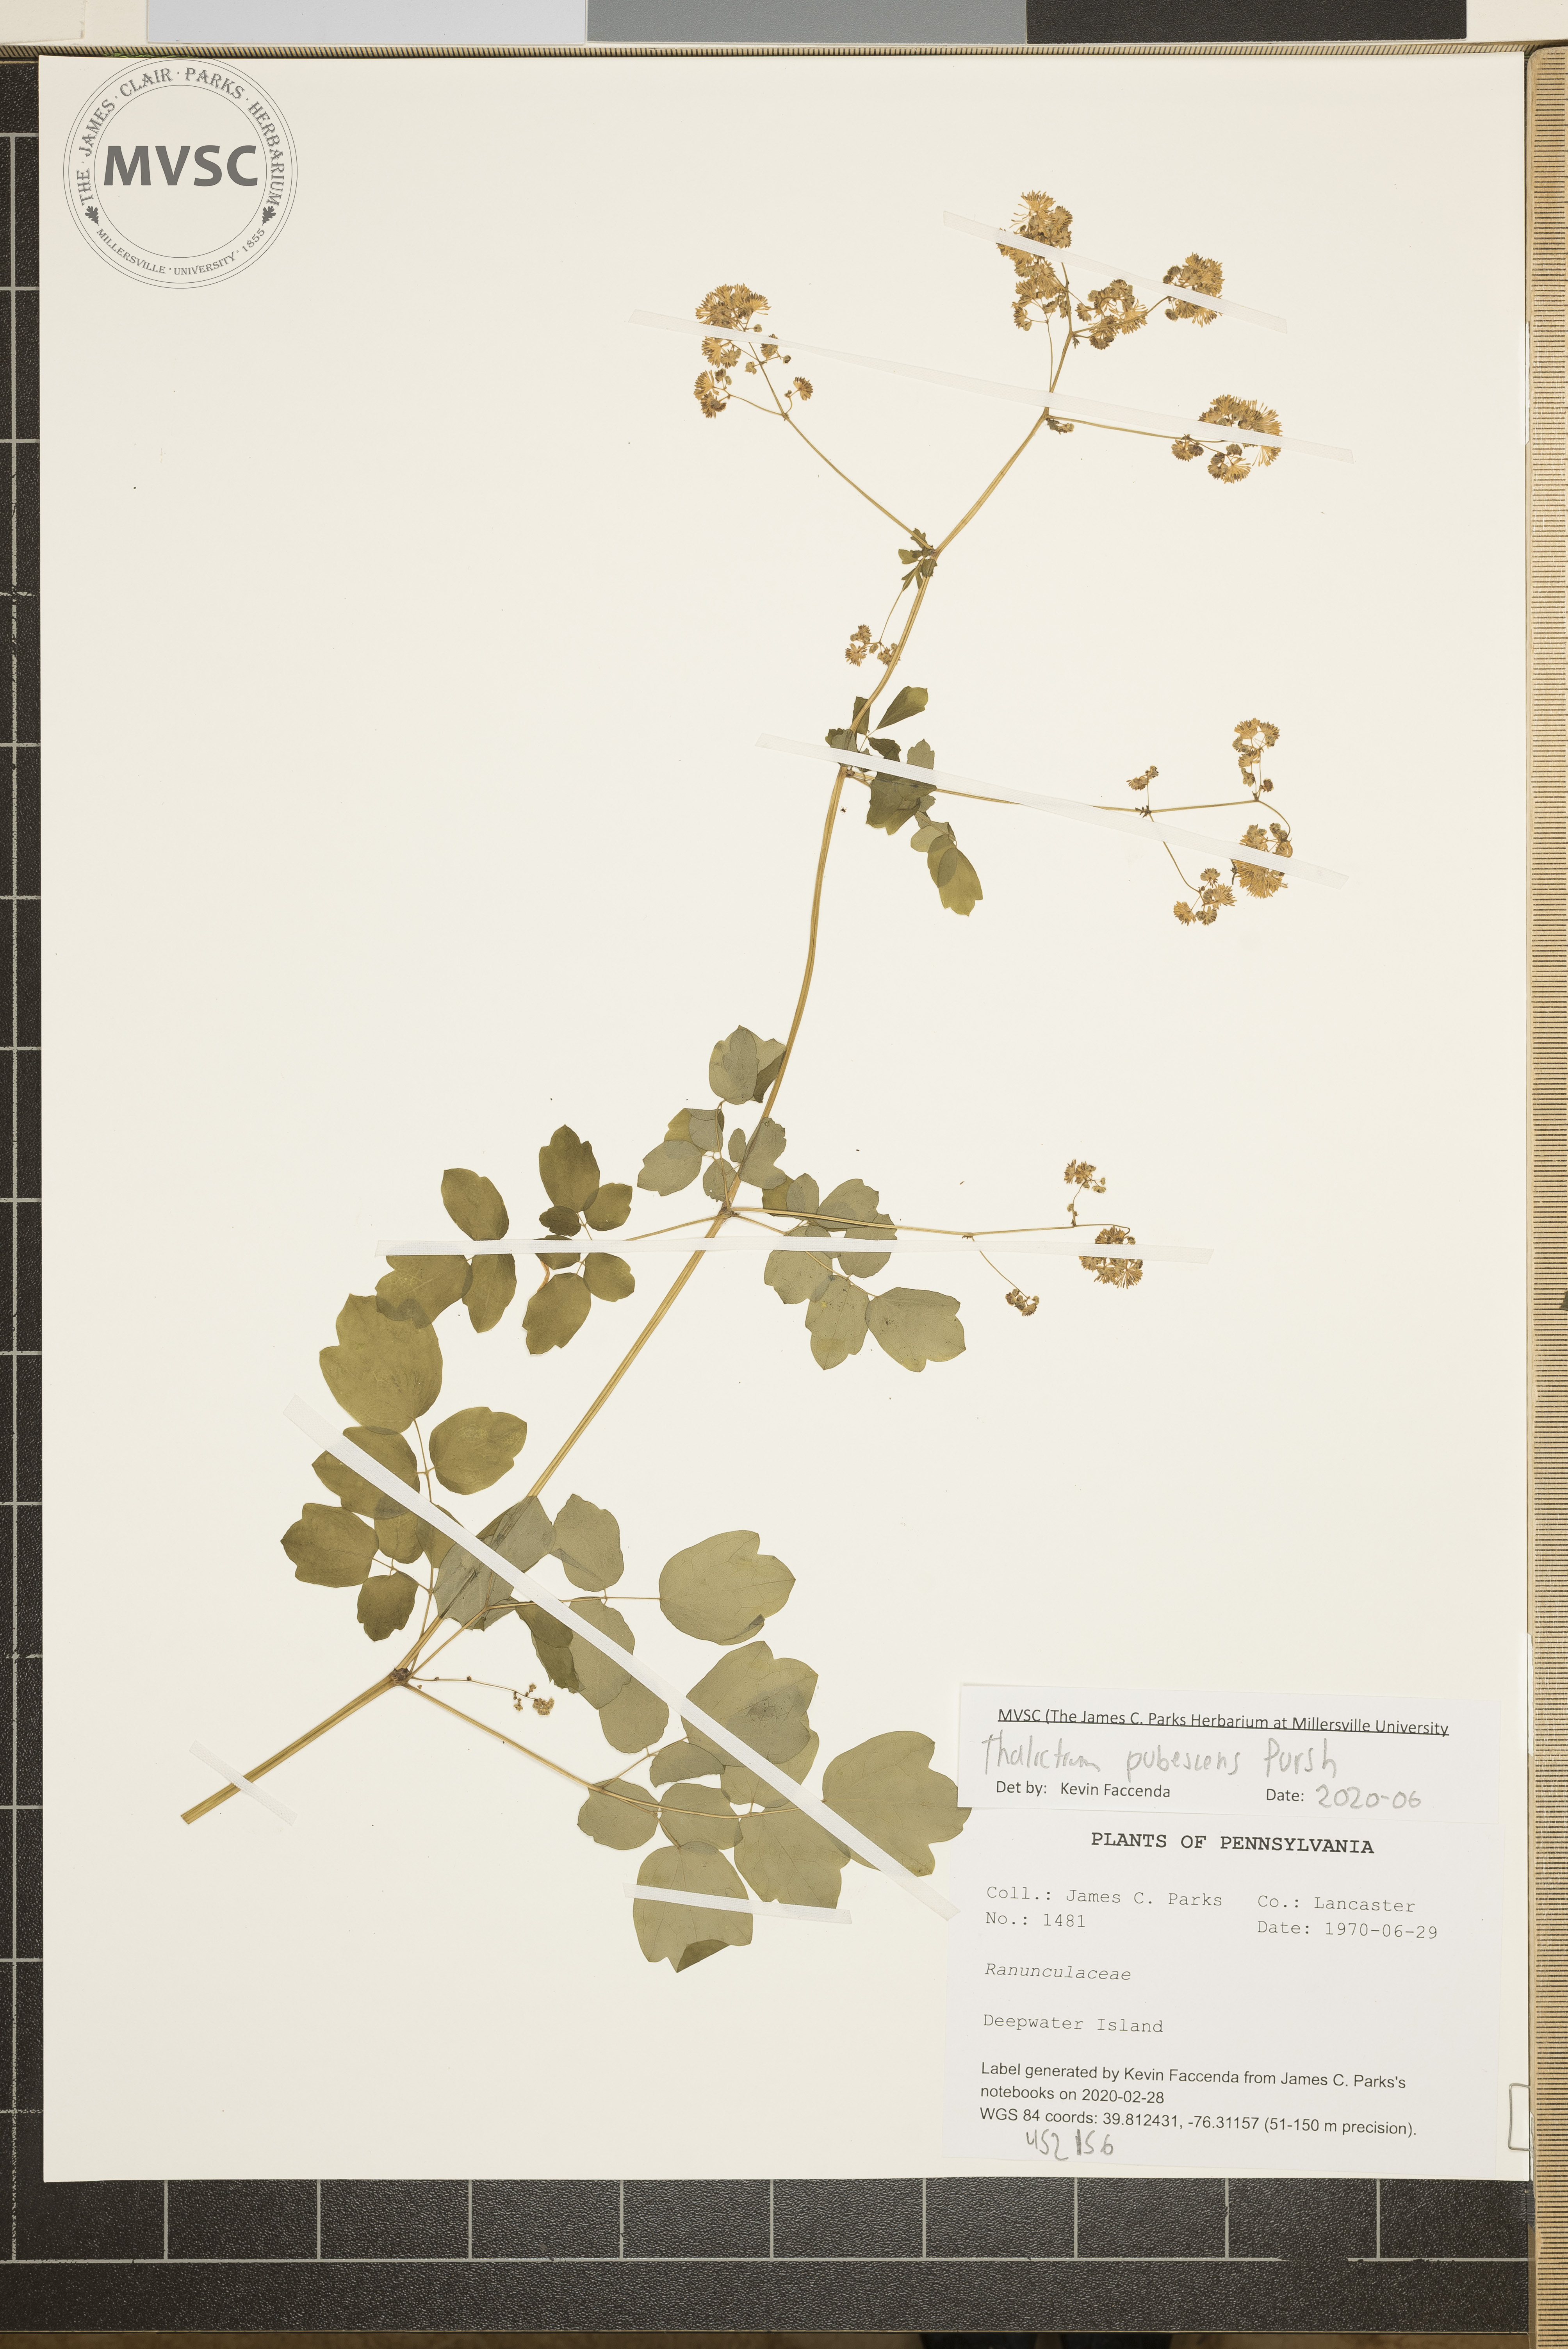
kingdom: Plantae
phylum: Tracheophyta
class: Magnoliopsida
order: Ranunculales
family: Ranunculaceae
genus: Thalictrum
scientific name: Thalictrum pubescens
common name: King-of-the-meadow
